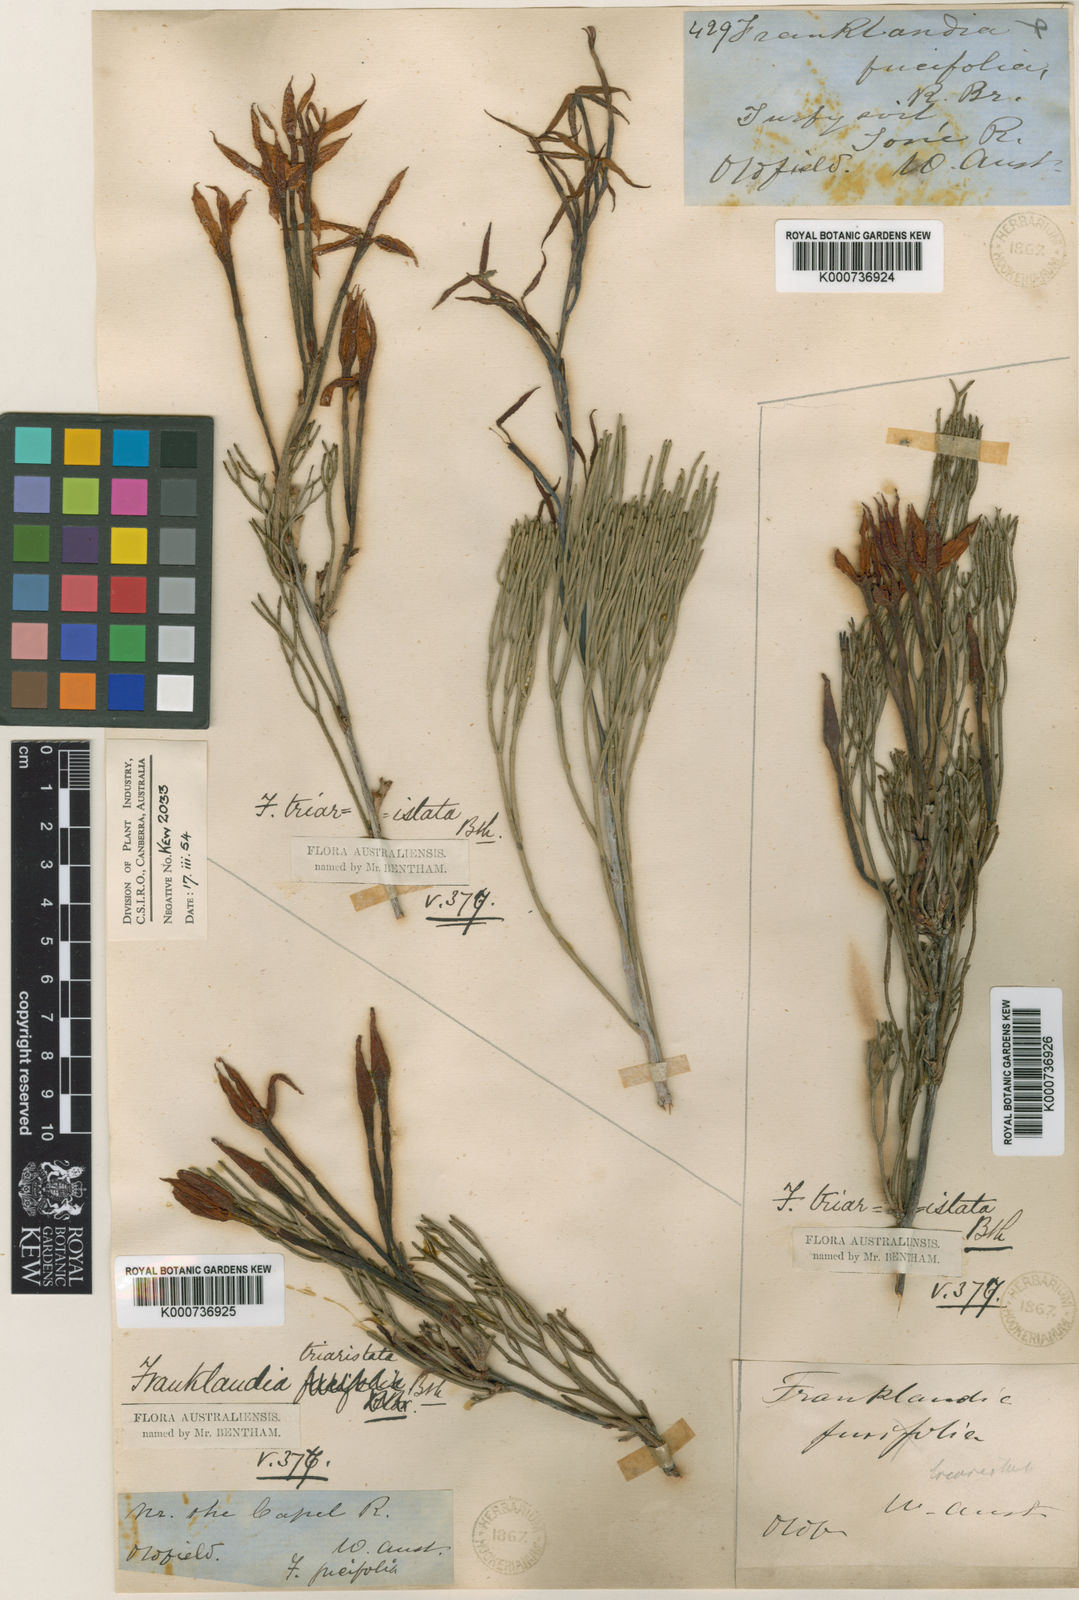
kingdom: Plantae
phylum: Tracheophyta
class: Magnoliopsida
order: Proteales
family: Proteaceae
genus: Franklandia
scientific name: Franklandia triaristata
